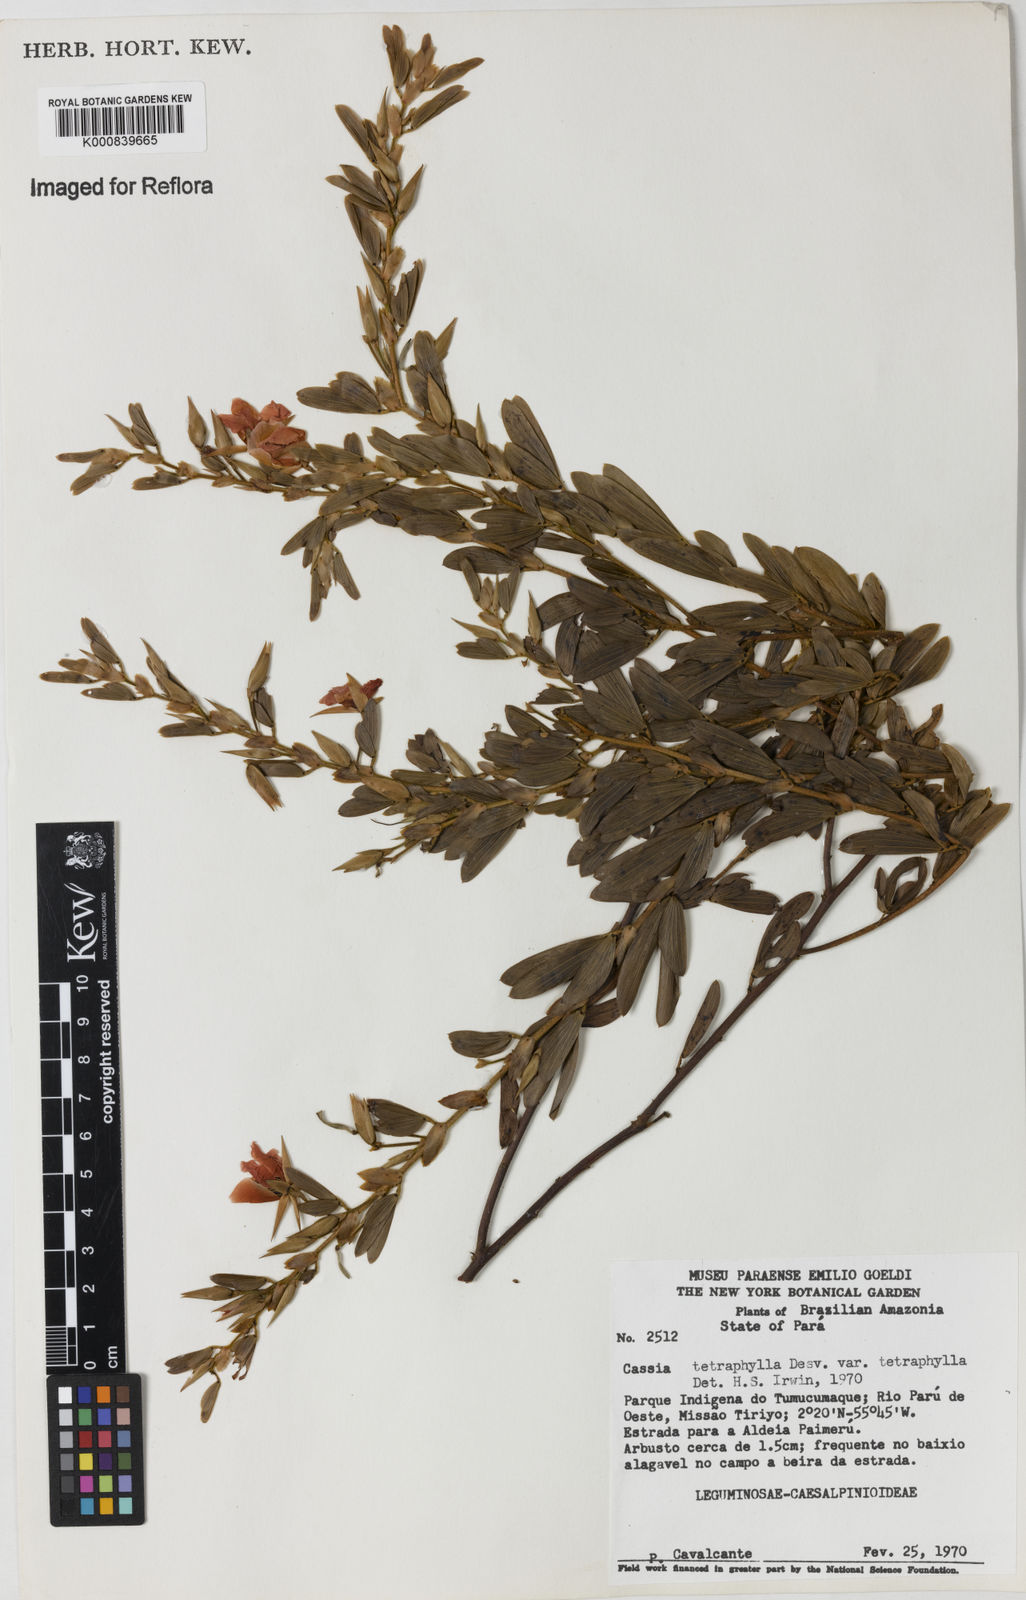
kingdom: Plantae
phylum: Tracheophyta
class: Magnoliopsida
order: Fabales
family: Fabaceae
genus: Chamaecrista
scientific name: Chamaecrista desvauxii
